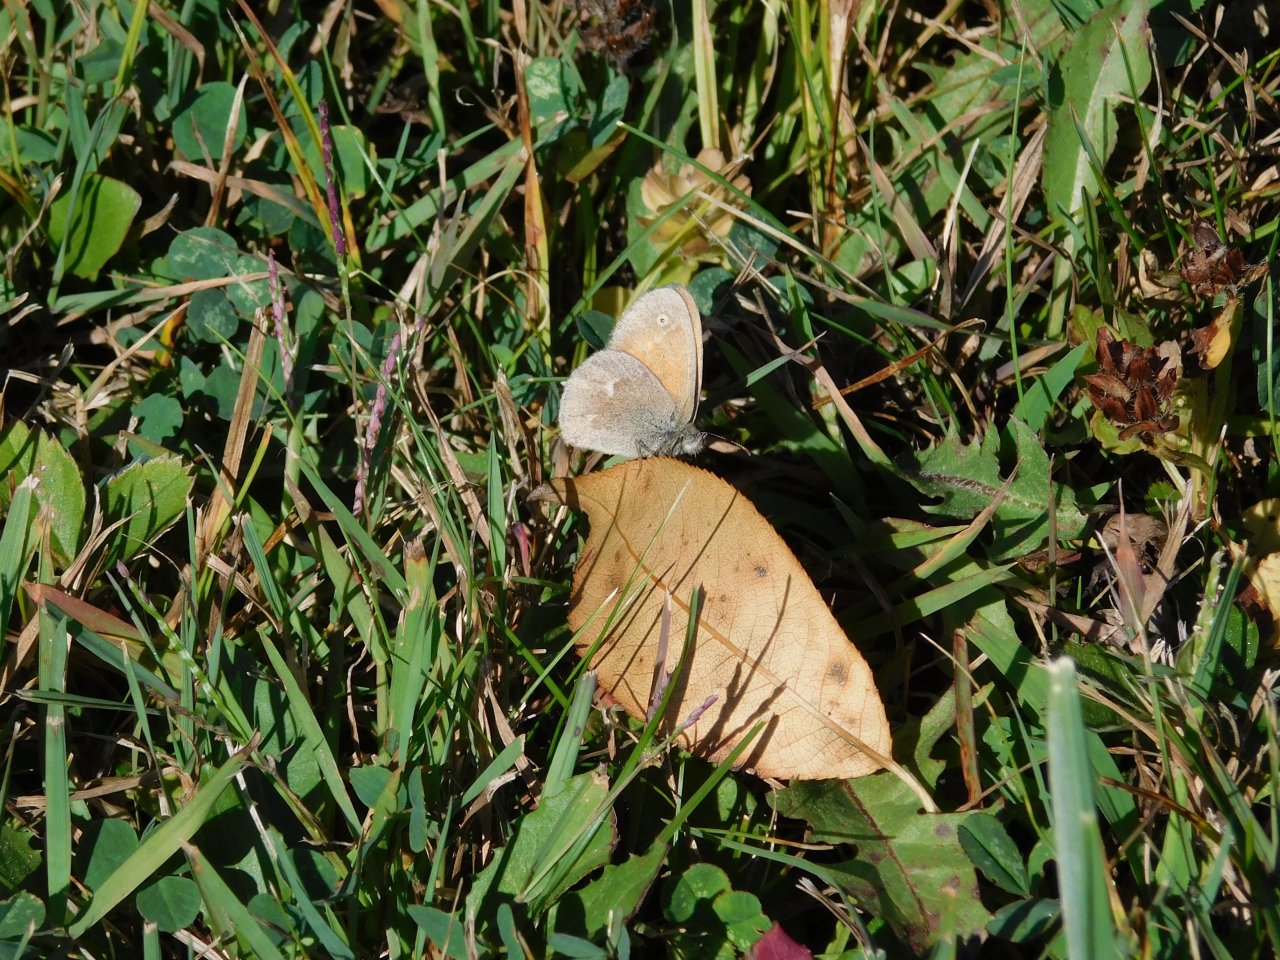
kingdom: Animalia
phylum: Arthropoda
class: Insecta
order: Lepidoptera
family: Nymphalidae
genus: Coenonympha
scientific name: Coenonympha tullia
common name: Large Heath
